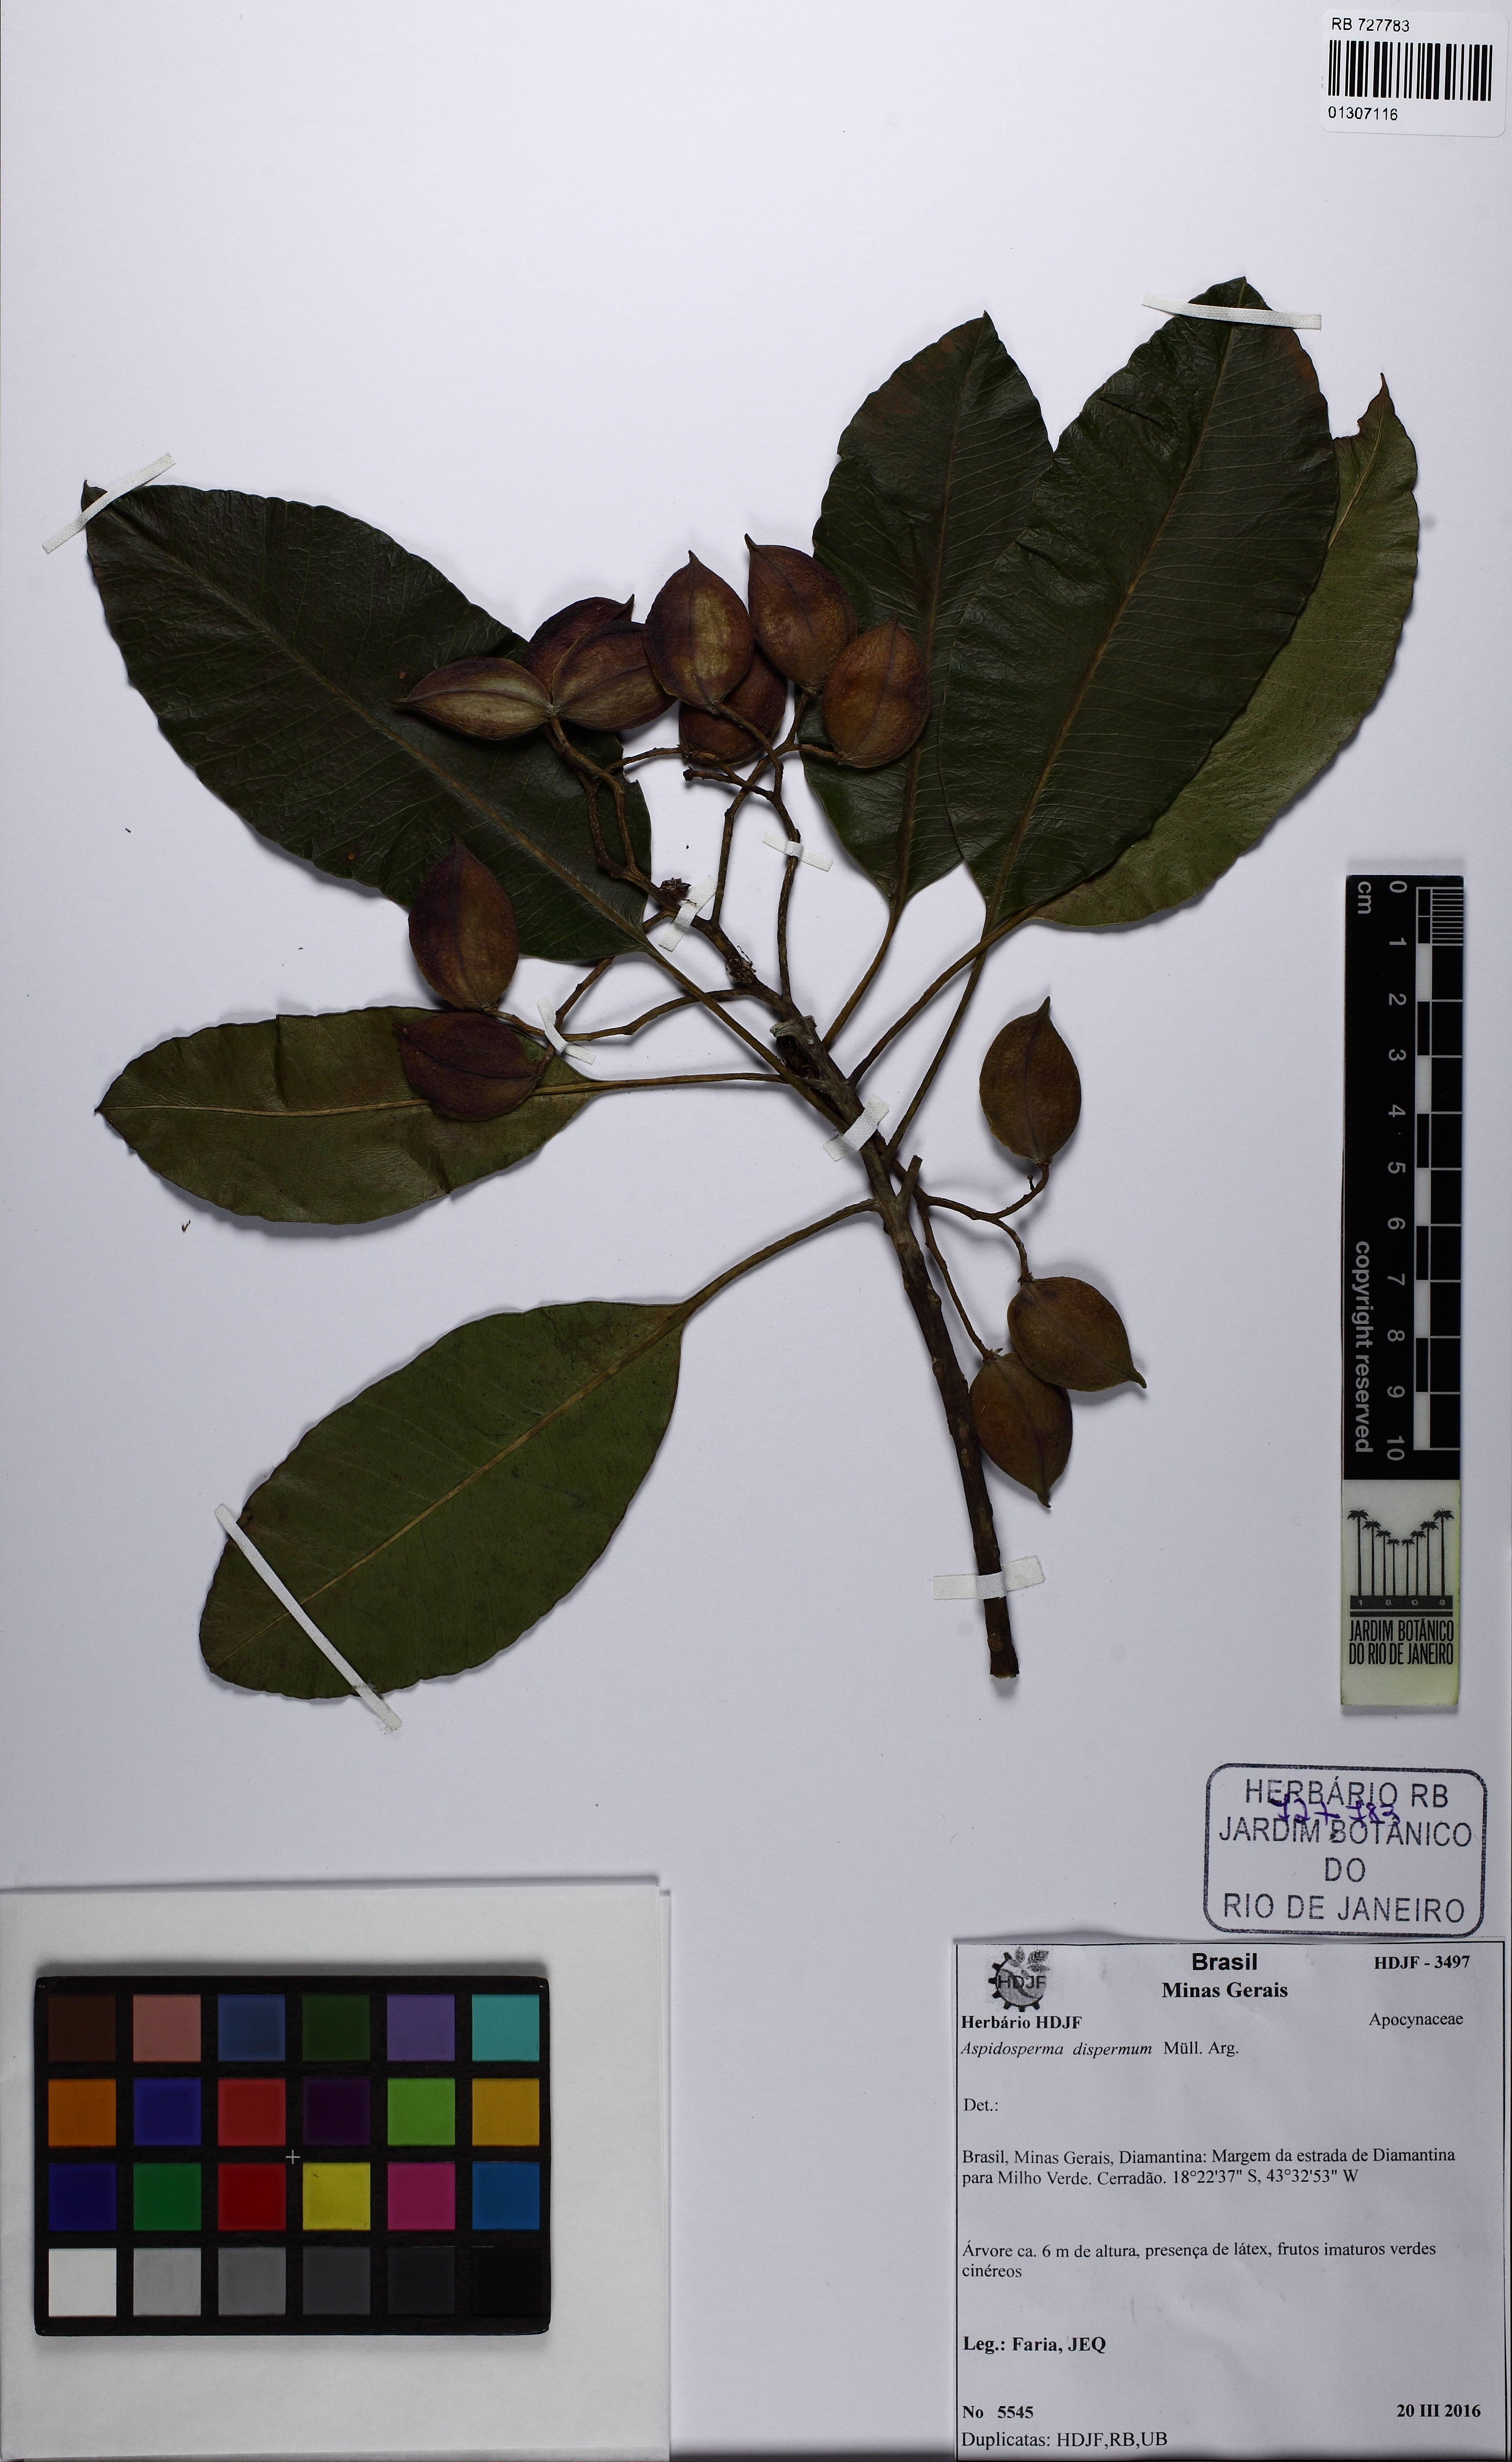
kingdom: Plantae
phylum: Tracheophyta
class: Magnoliopsida
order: Gentianales
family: Apocynaceae
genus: Aspidosperma
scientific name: Aspidosperma dispermum
